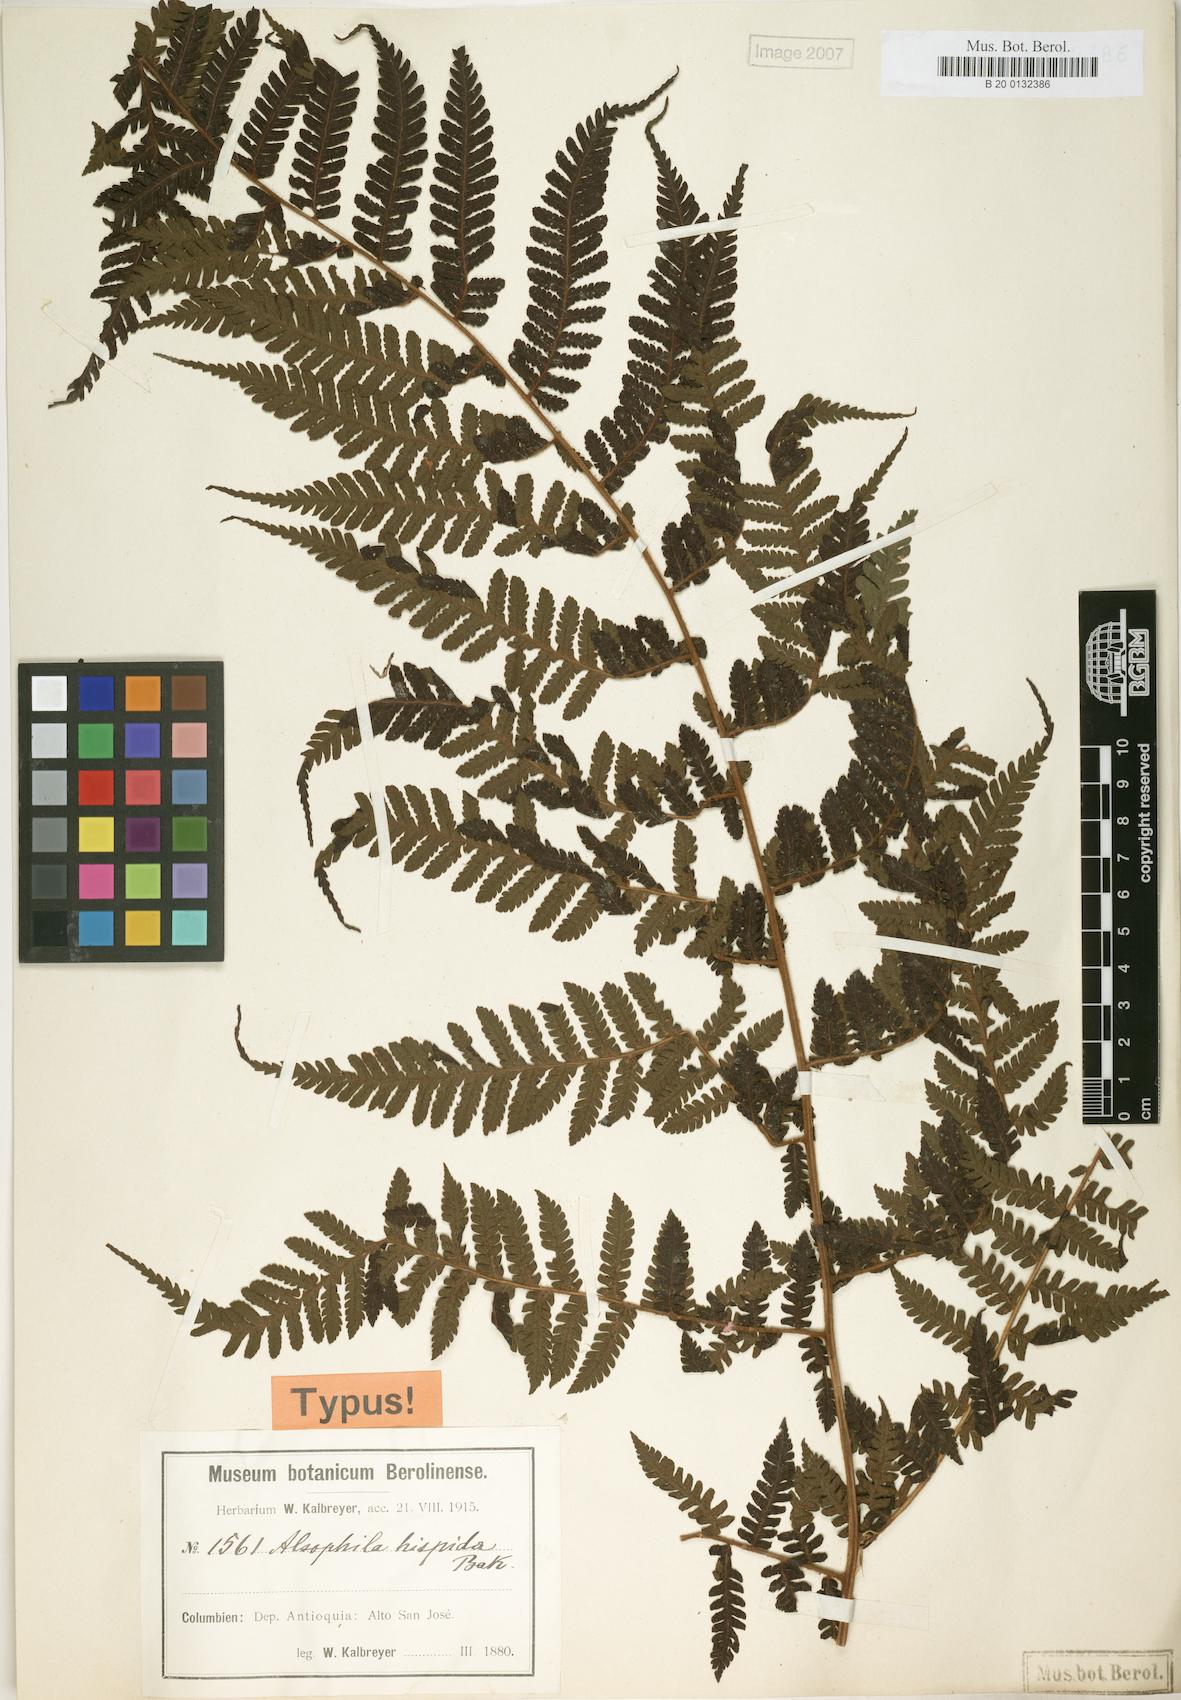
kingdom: Plantae
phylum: Tracheophyta
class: Polypodiopsida
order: Cyatheales
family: Cyatheaceae
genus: Alsophila
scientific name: Alsophila hispida
